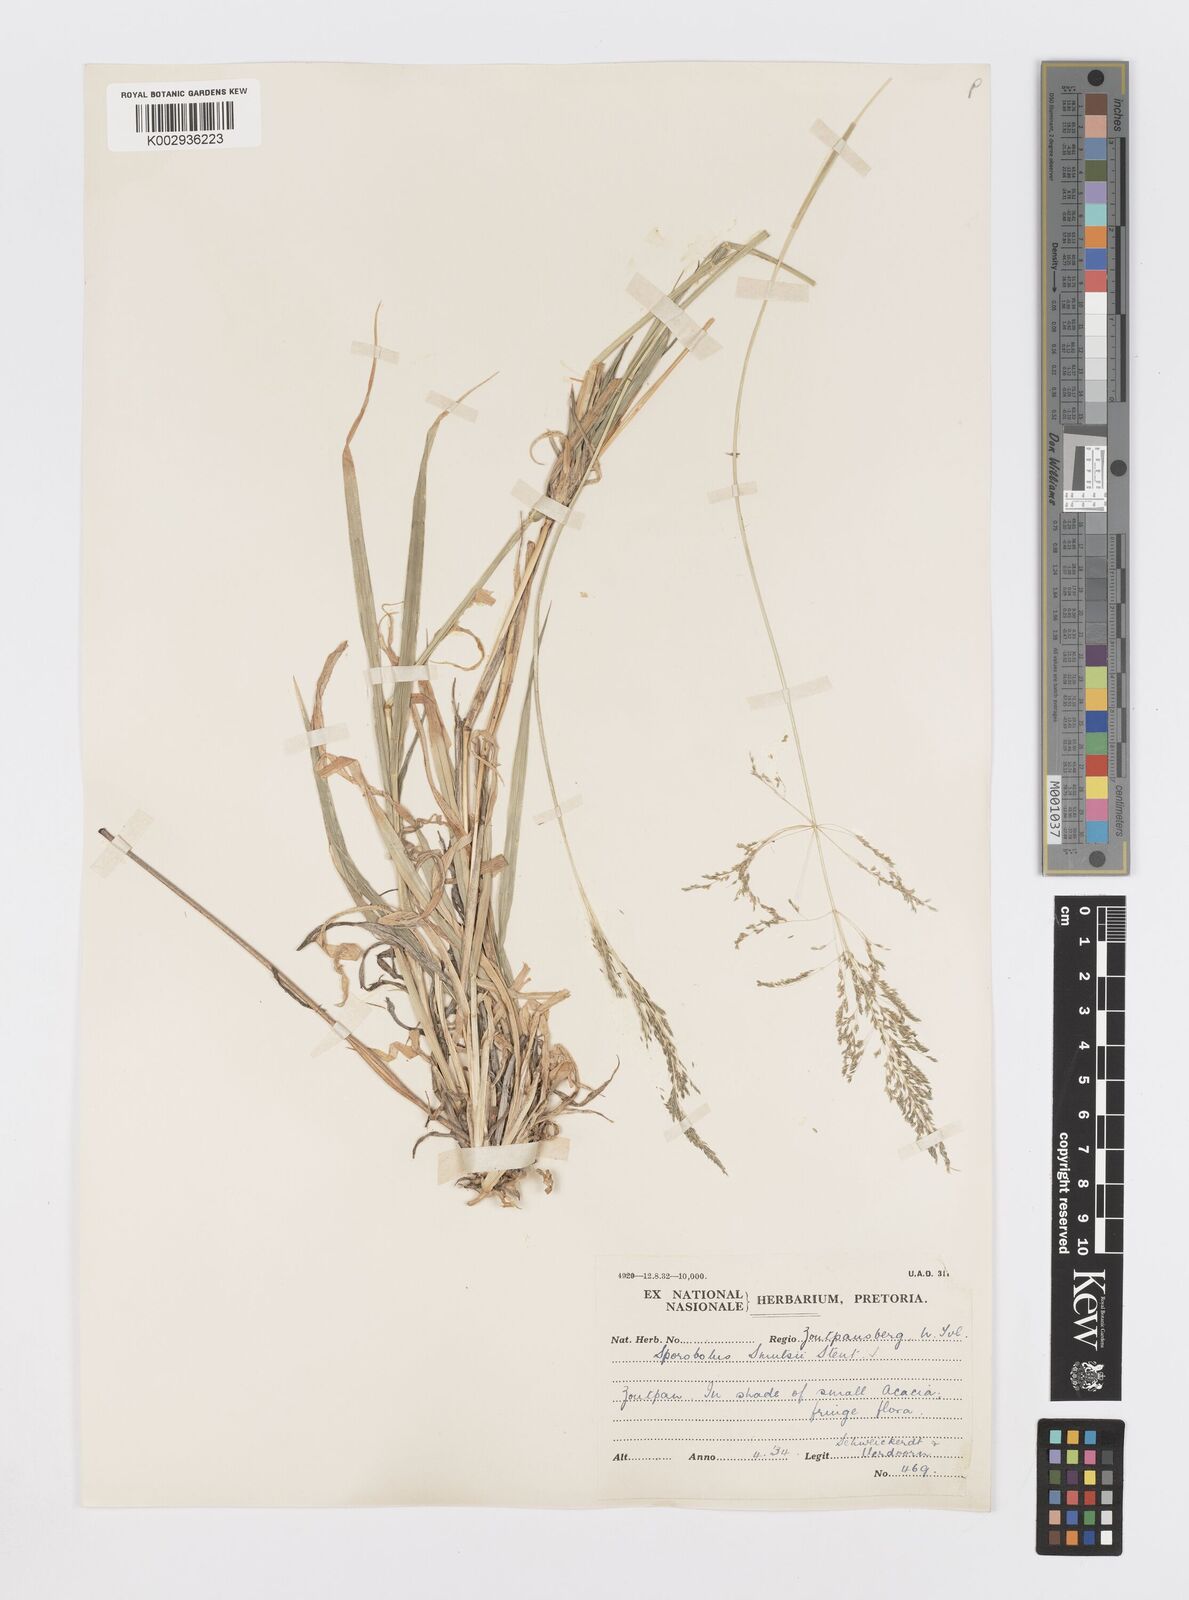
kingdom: Plantae
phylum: Tracheophyta
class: Liliopsida
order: Poales
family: Poaceae
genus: Sporobolus
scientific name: Sporobolus ioclados
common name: Pan dropseed
